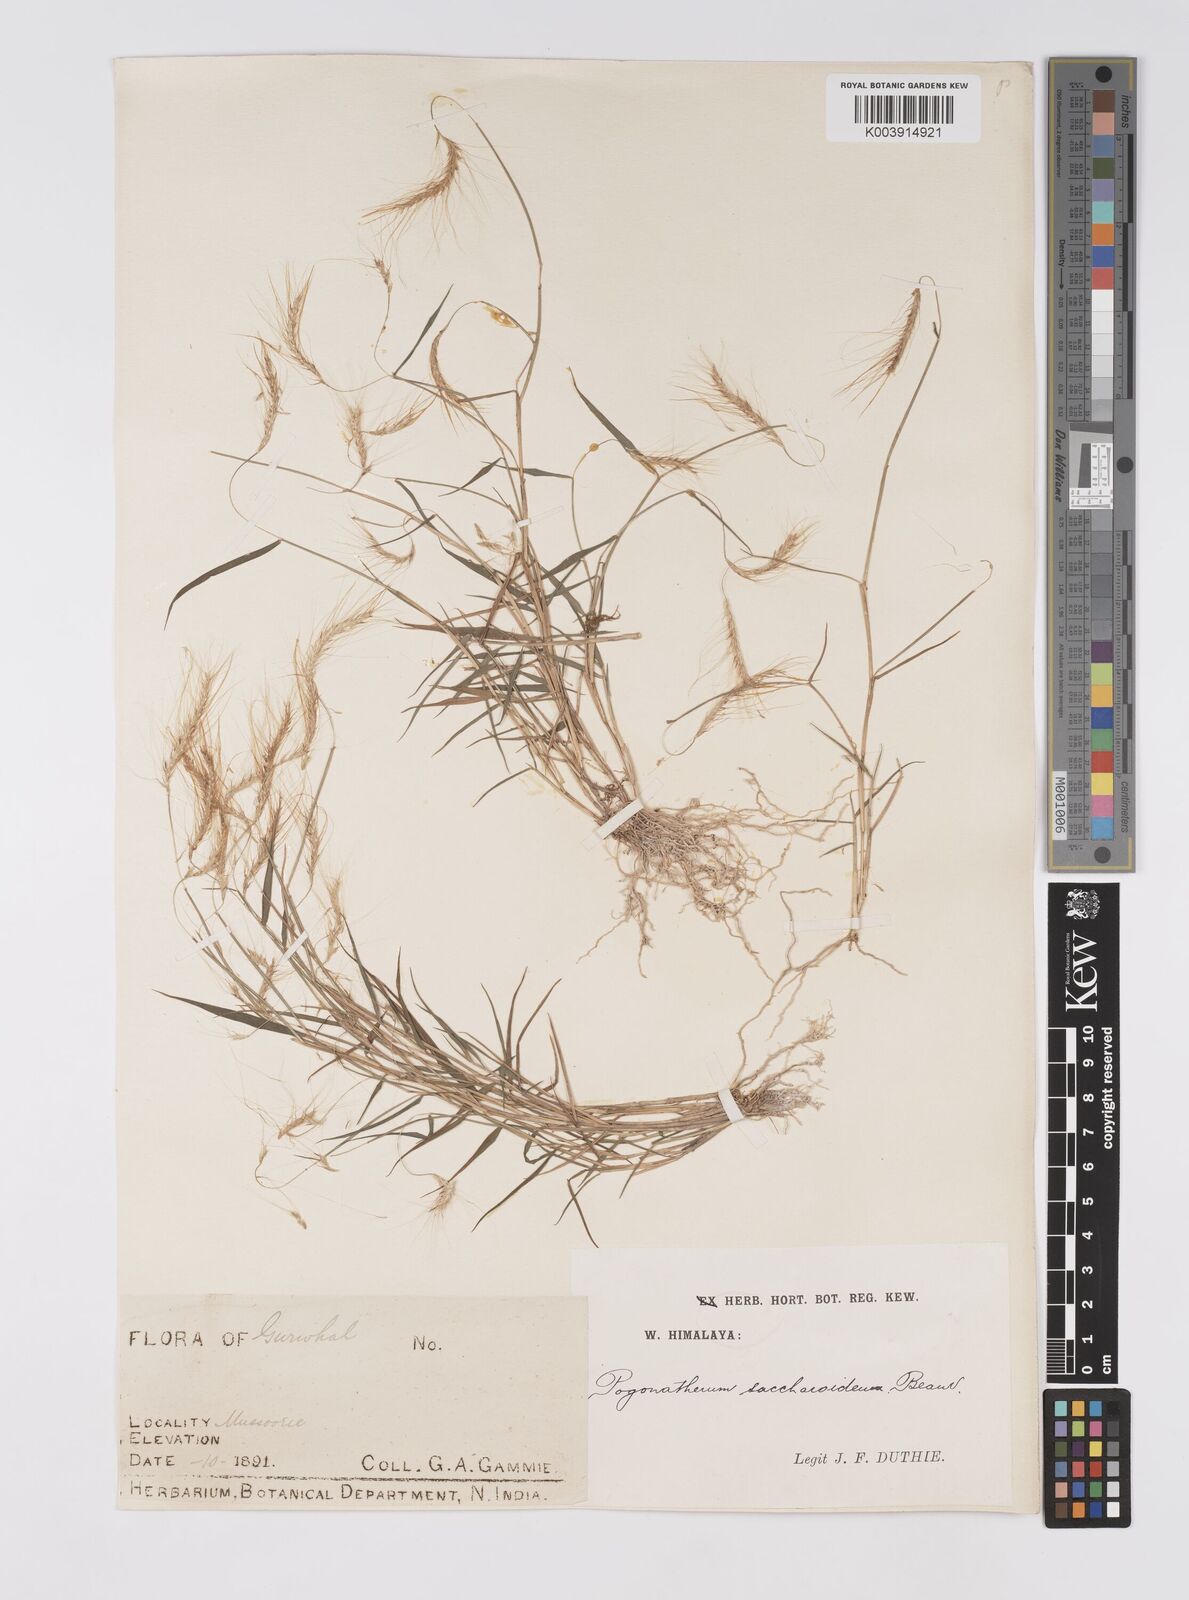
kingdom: Plantae
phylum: Tracheophyta
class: Liliopsida
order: Poales
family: Poaceae
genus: Pogonatherum
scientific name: Pogonatherum paniceum
